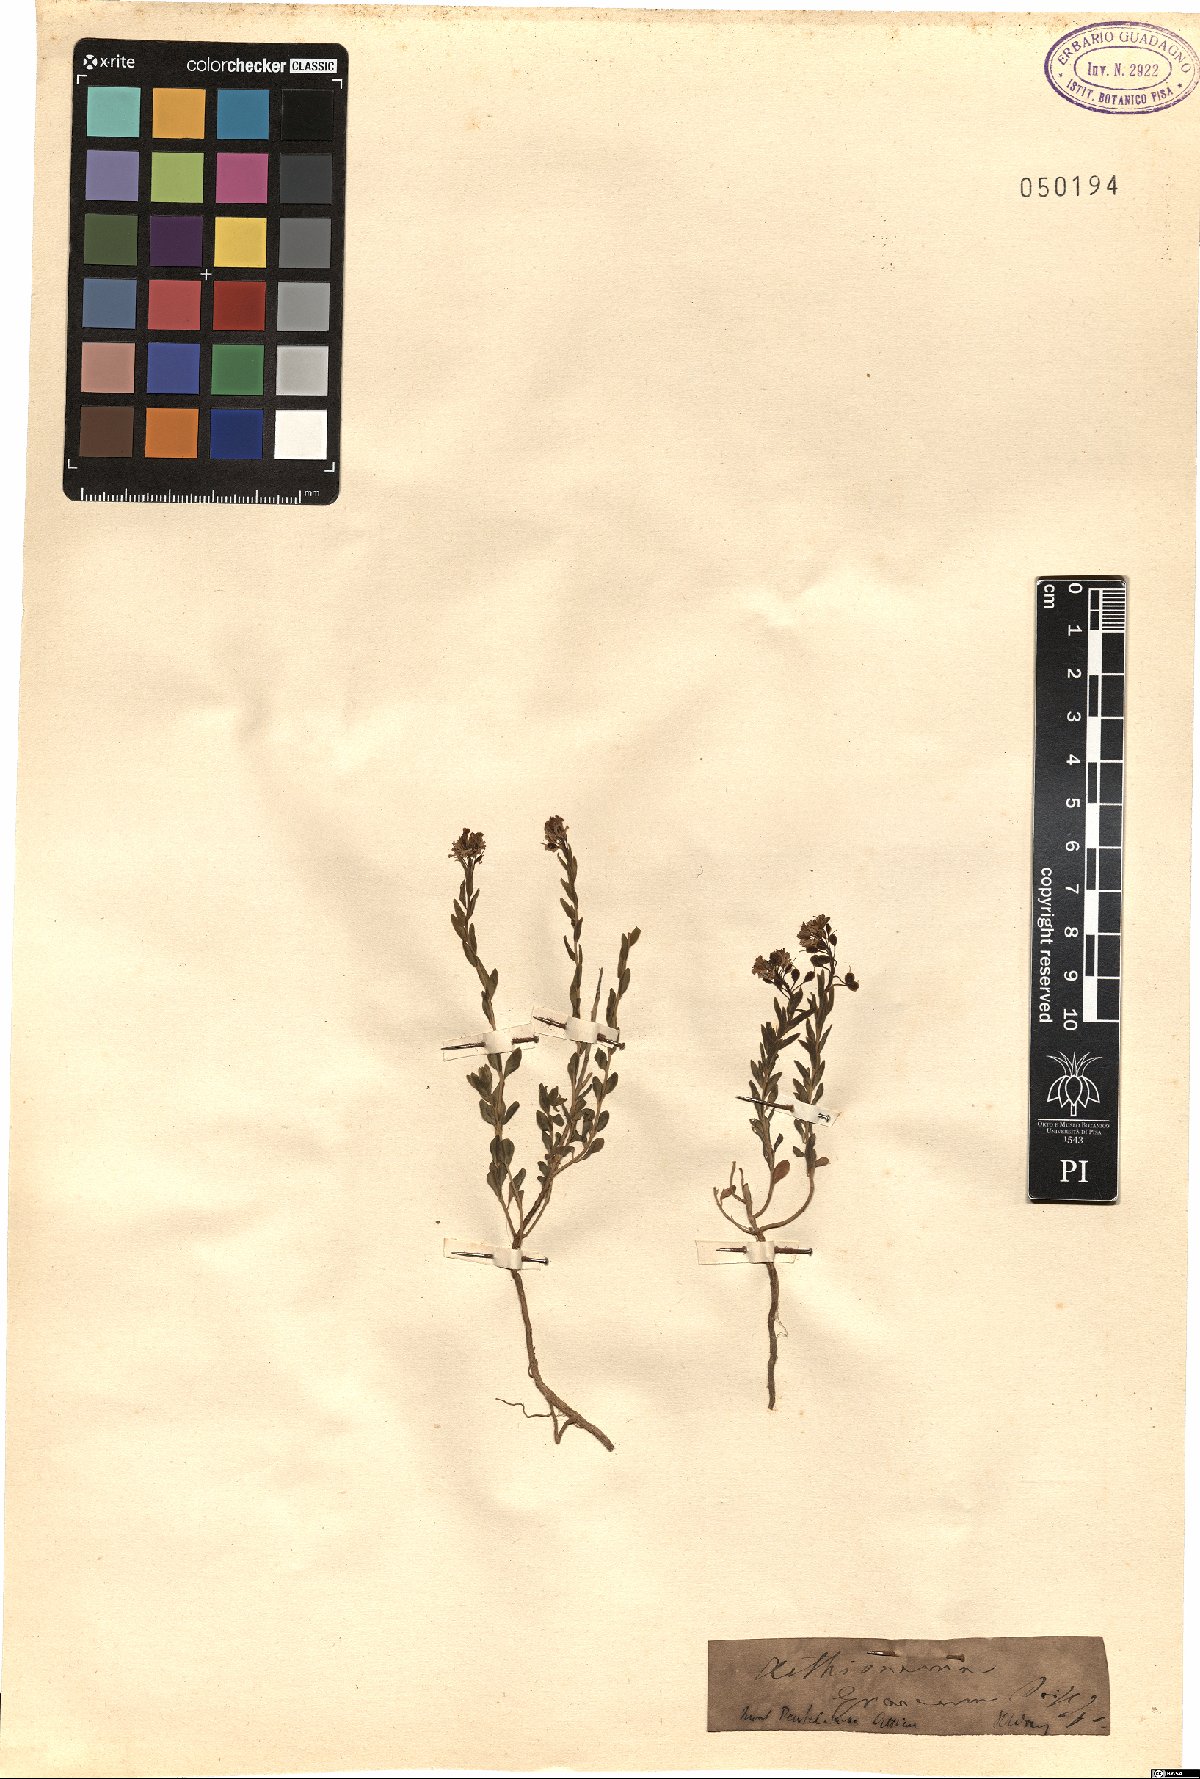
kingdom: Plantae
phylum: Tracheophyta
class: Magnoliopsida
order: Brassicales
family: Brassicaceae
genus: Aethionema
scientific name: Aethionema saxatile
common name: Burnt candytuft
